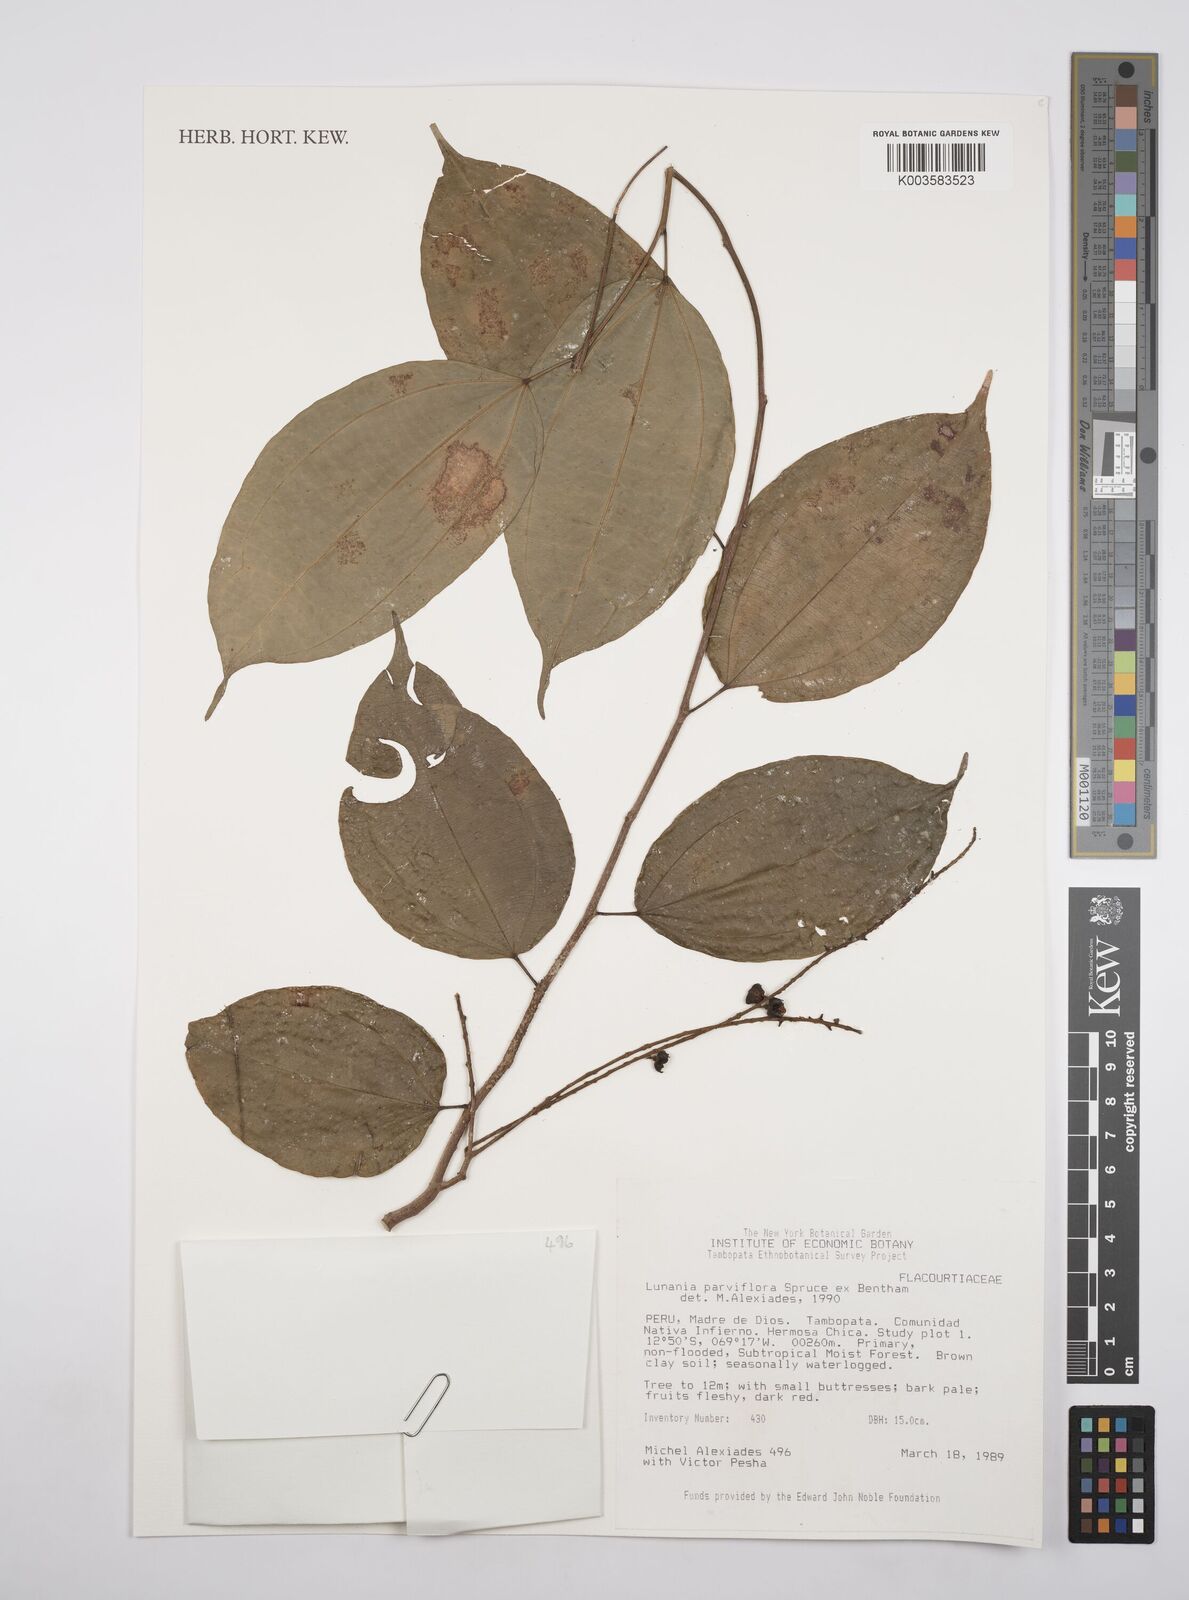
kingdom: Plantae
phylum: Tracheophyta
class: Magnoliopsida
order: Malpighiales
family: Salicaceae
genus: Lunania
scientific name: Lunania parviflora
